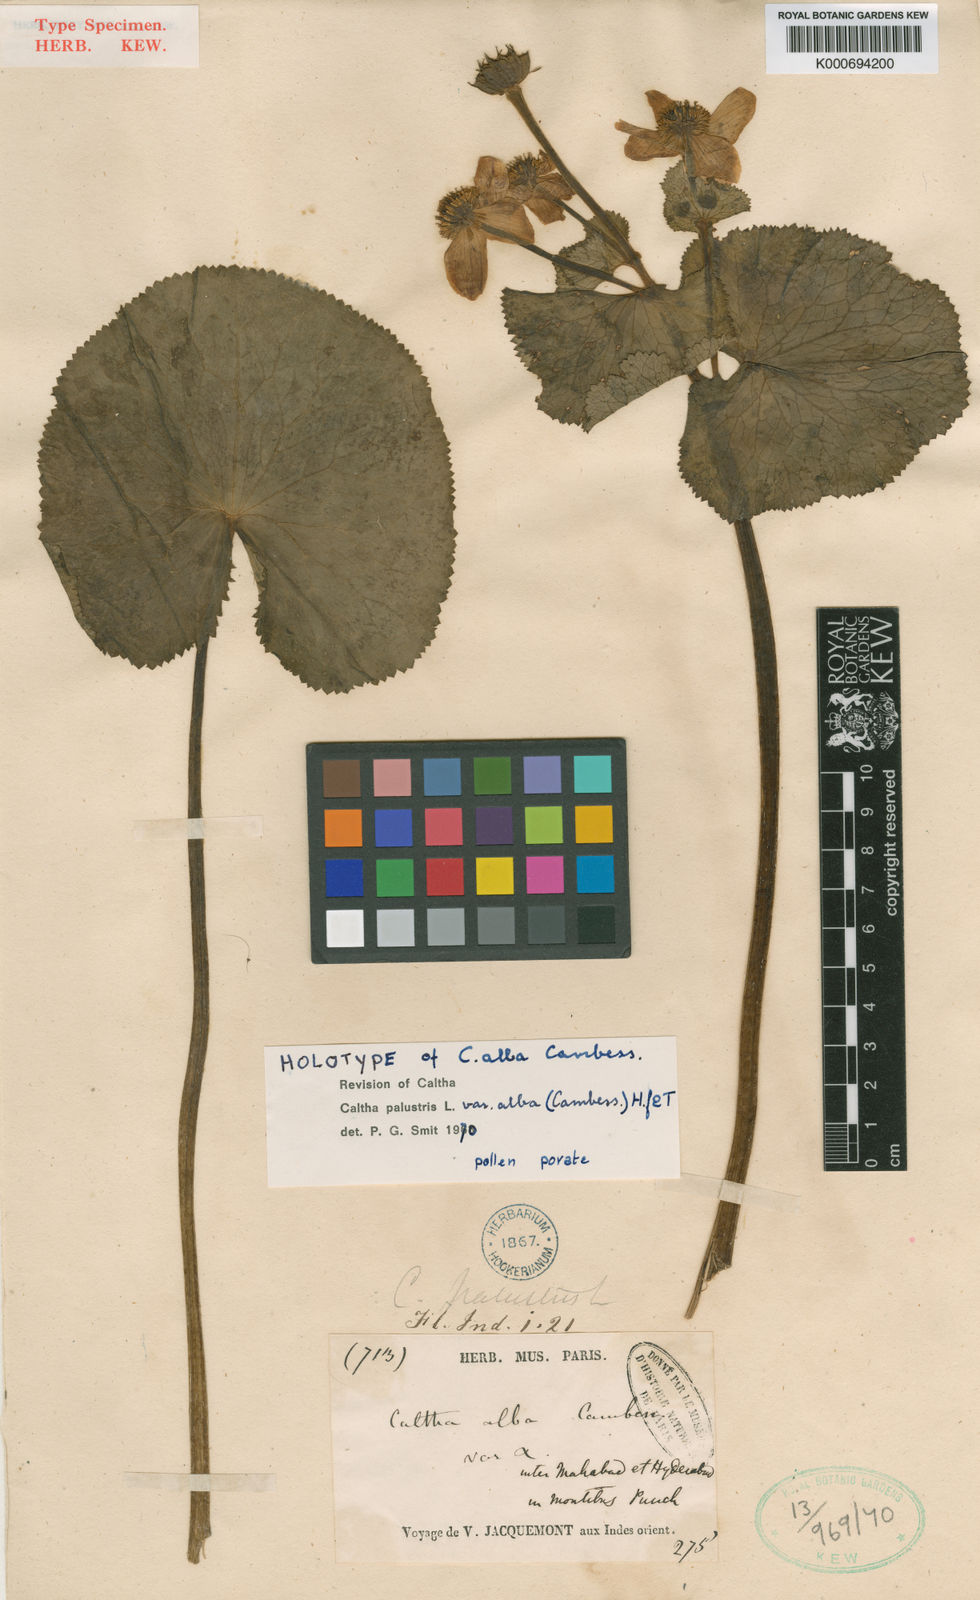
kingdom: Plantae
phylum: Tracheophyta
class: Magnoliopsida
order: Ranunculales
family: Ranunculaceae
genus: Caltha
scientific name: Caltha
